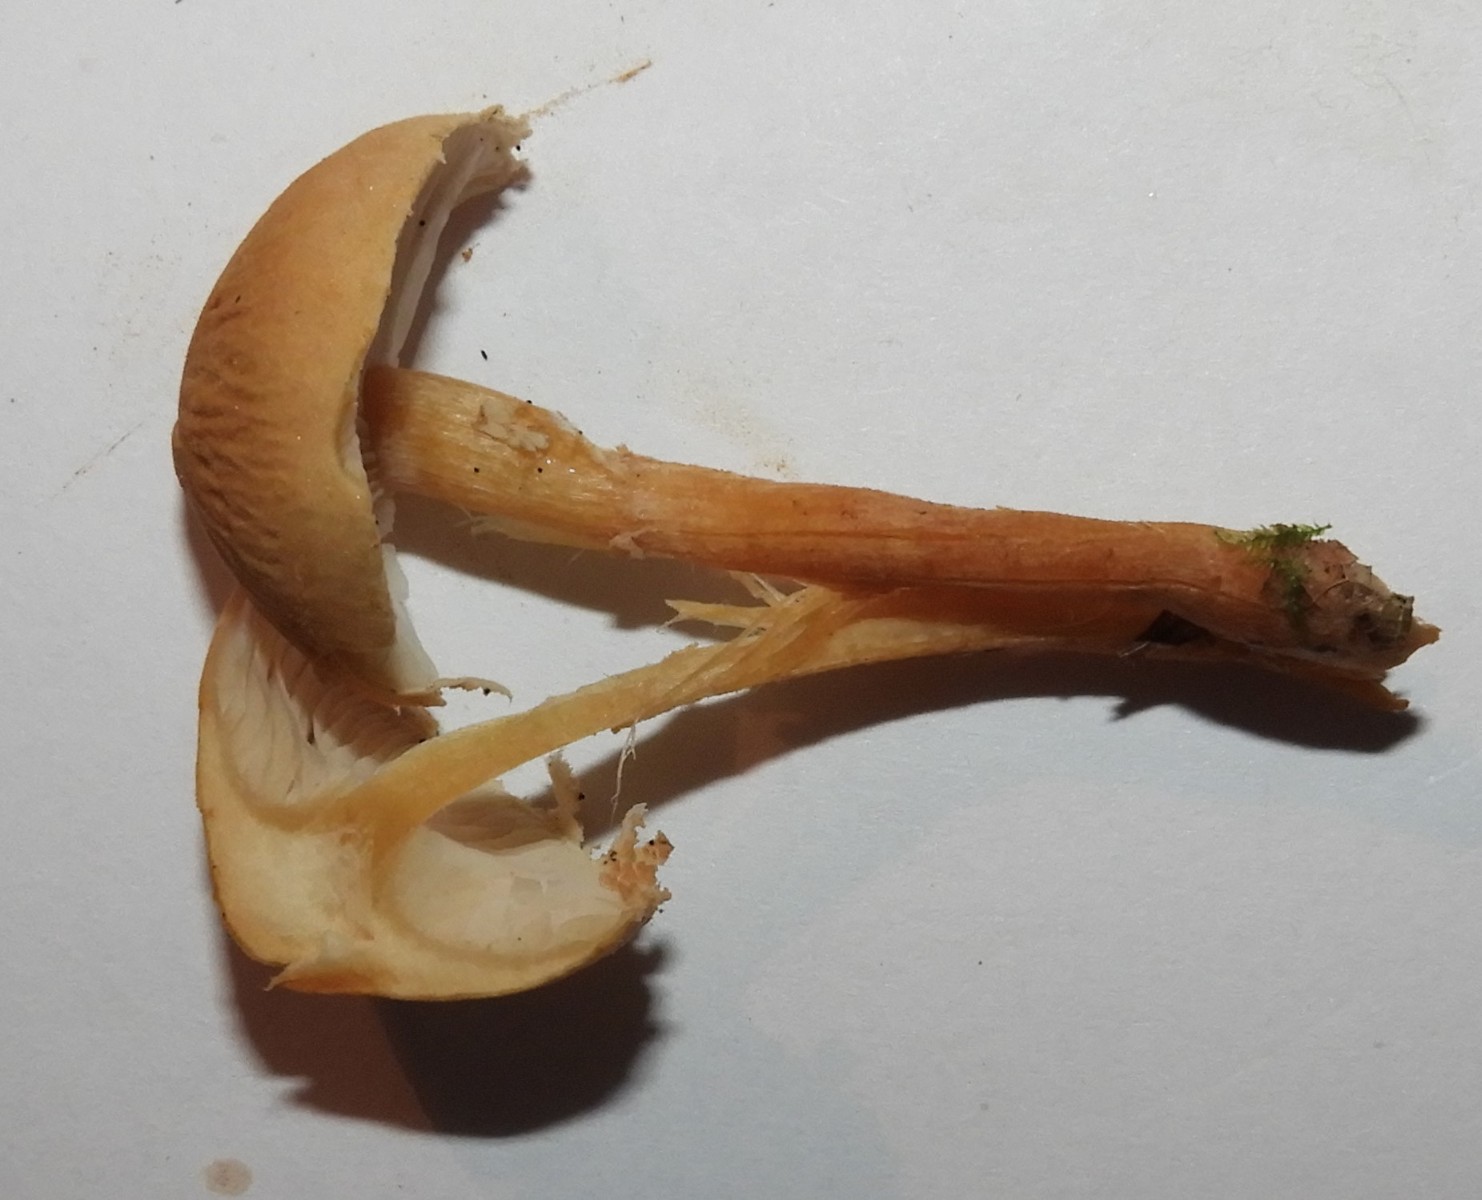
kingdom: Fungi
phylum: Basidiomycota
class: Agaricomycetes
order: Agaricales
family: Tricholomataceae
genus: Cystoderma
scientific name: Cystoderma amianthinum
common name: okkergul grynhat
